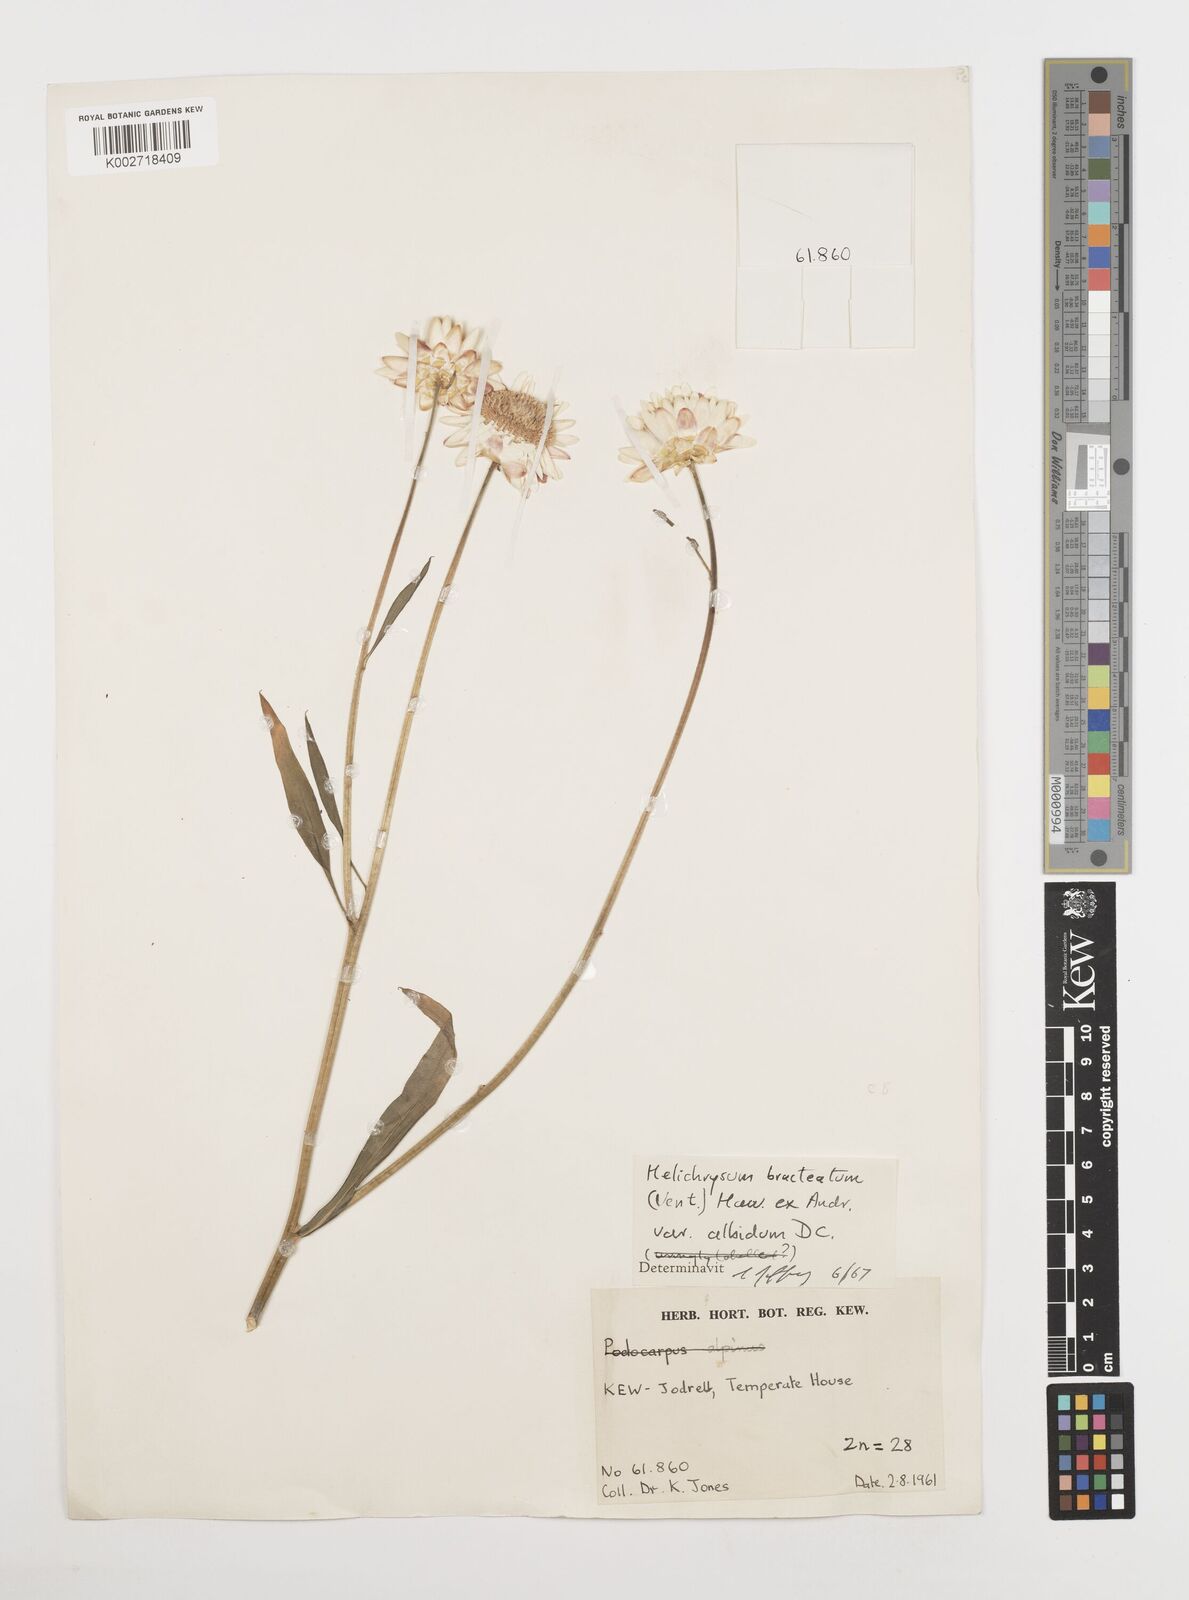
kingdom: Plantae
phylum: Tracheophyta
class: Magnoliopsida
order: Asterales
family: Asteraceae
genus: Xerochrysum
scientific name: Xerochrysum bracteatum
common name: Bracted strawflower
